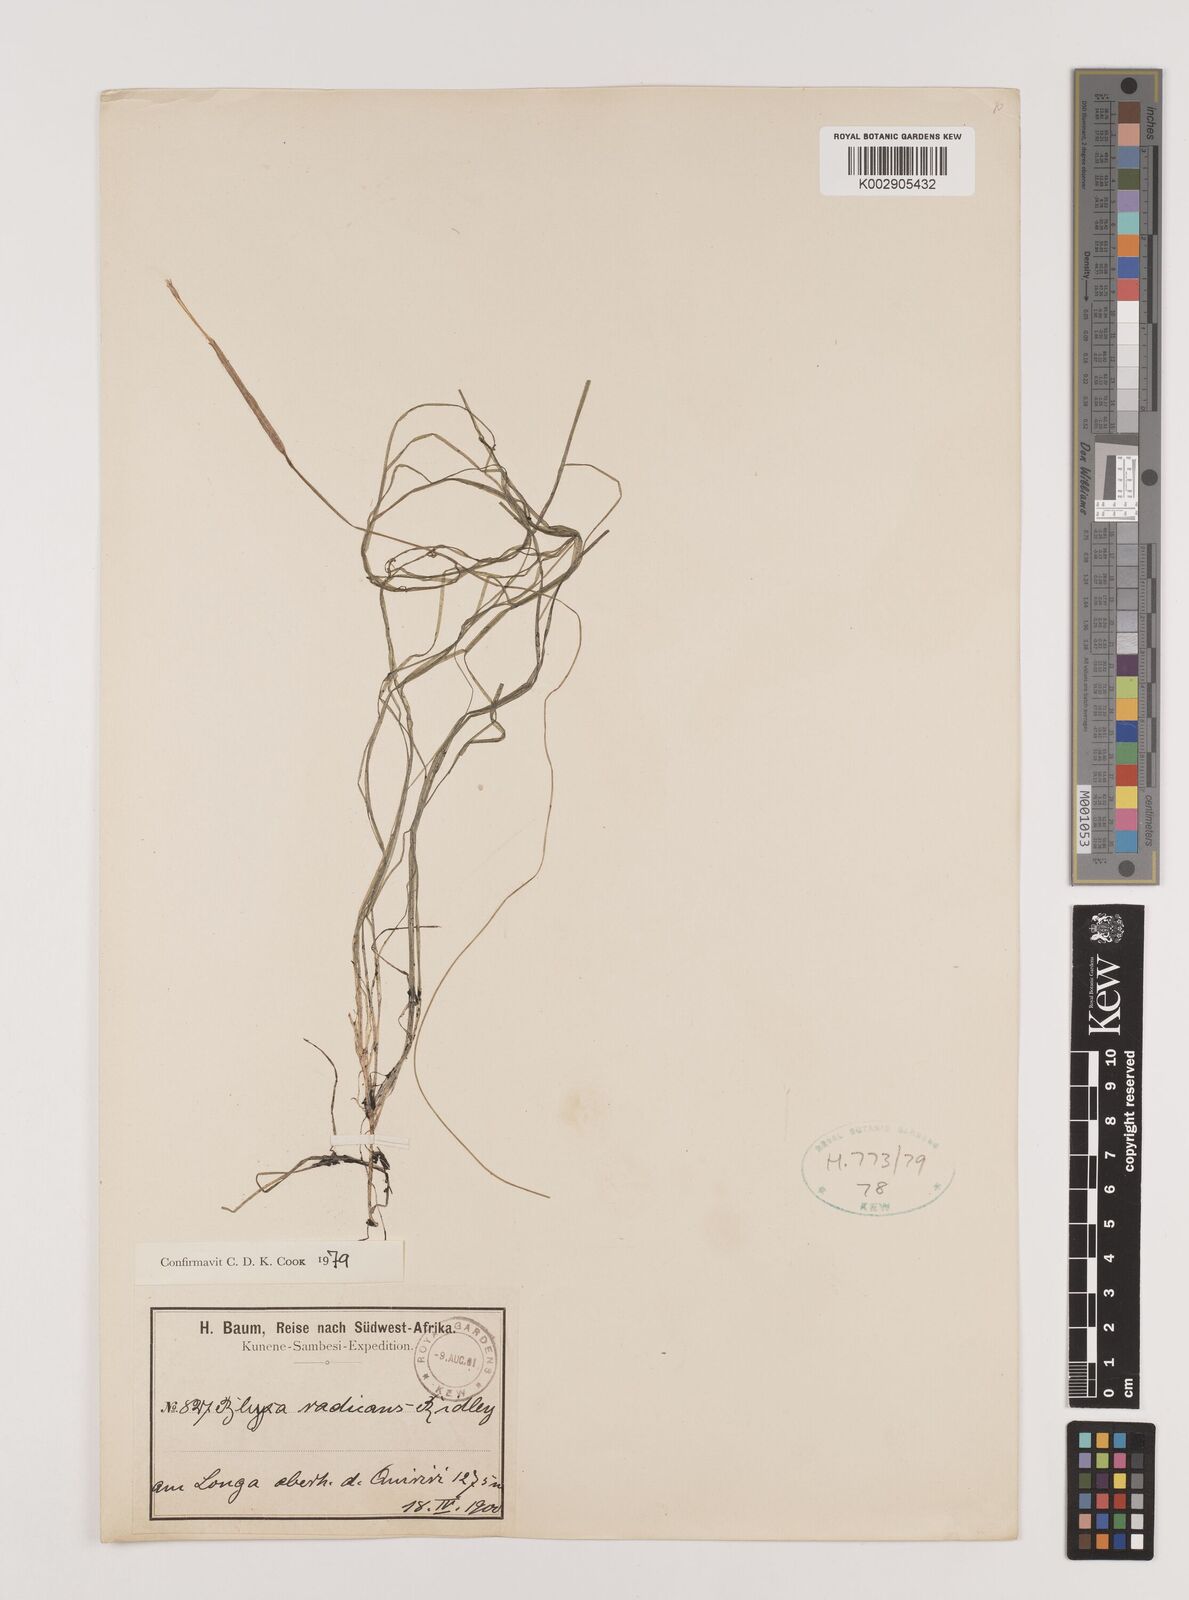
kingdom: Plantae
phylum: Tracheophyta
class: Liliopsida
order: Alismatales
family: Hydrocharitaceae
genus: Blyxa
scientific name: Blyxa radicans
